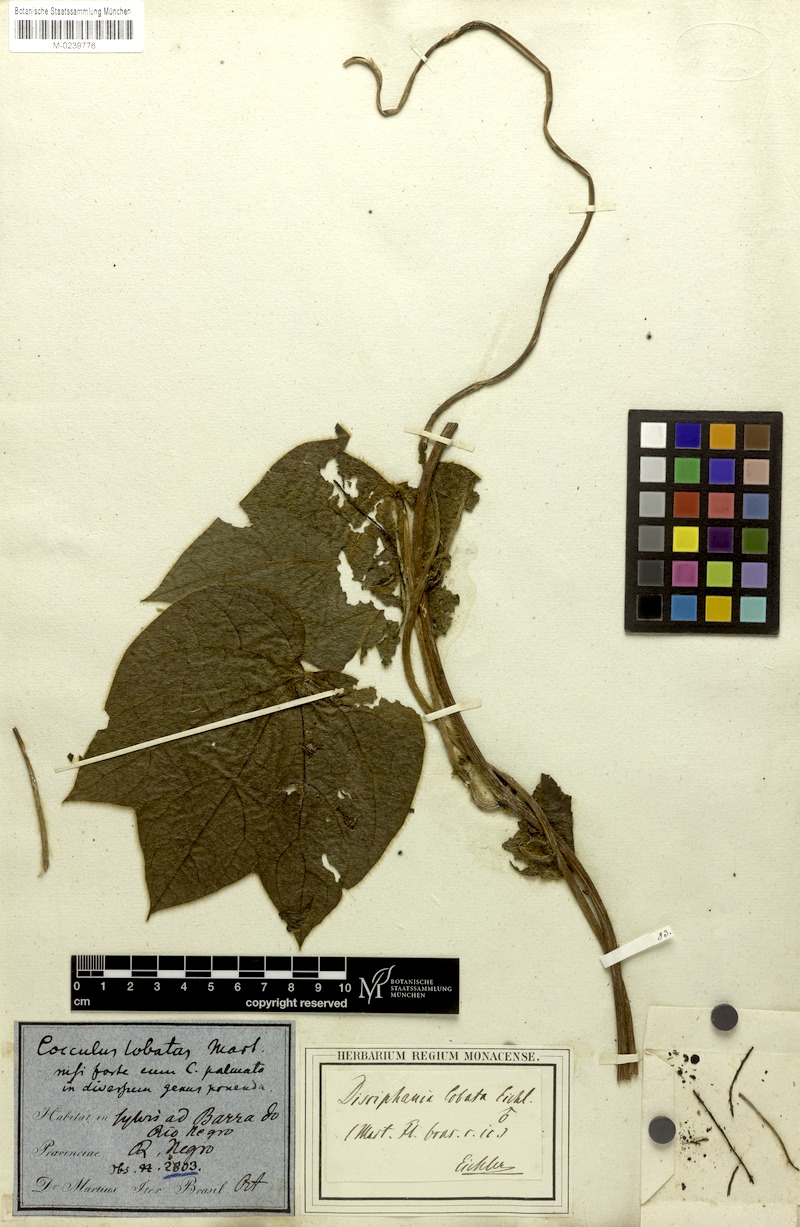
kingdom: Plantae
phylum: Tracheophyta
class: Magnoliopsida
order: Ranunculales
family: Menispermaceae
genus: Disciphania
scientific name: Disciphania lobata
